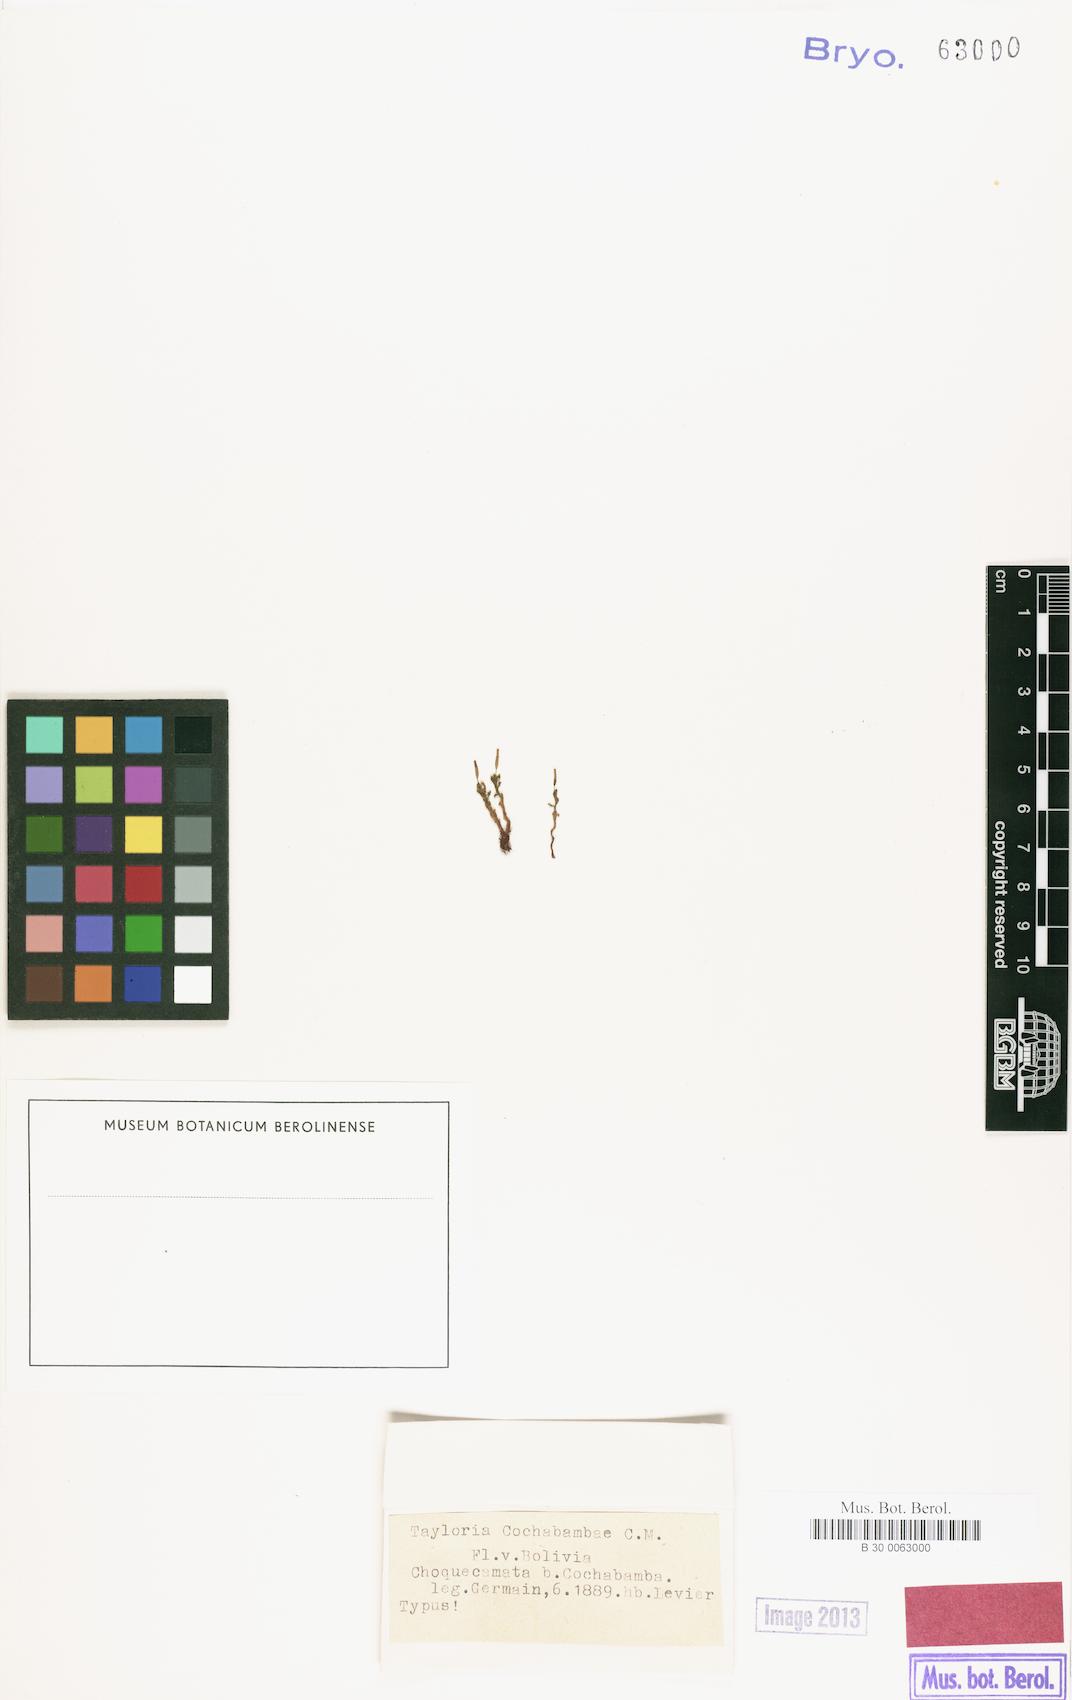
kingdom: Plantae
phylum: Bryophyta
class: Bryopsida
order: Splachnales
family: Splachnaceae
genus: Brachymitrion
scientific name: Brachymitrion cochabambae
